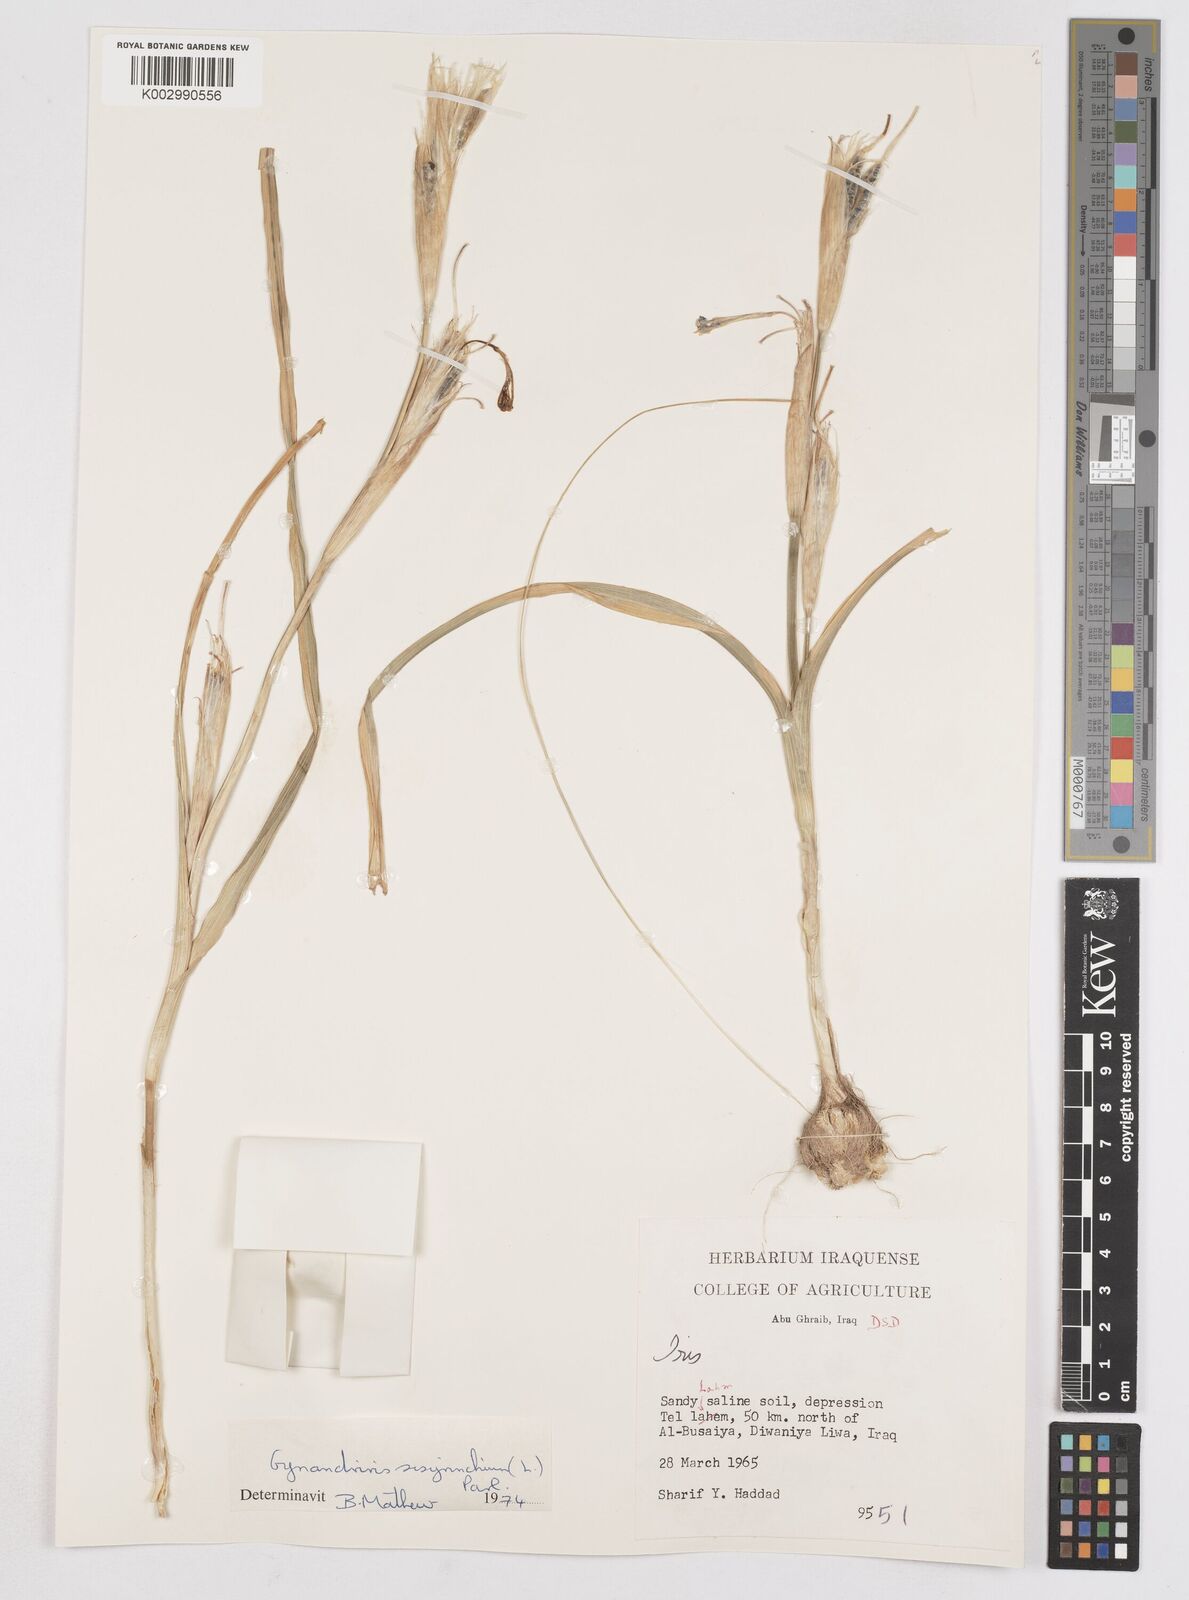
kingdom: Plantae
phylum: Tracheophyta
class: Liliopsida
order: Asparagales
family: Iridaceae
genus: Moraea
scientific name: Moraea sisyrinchium
